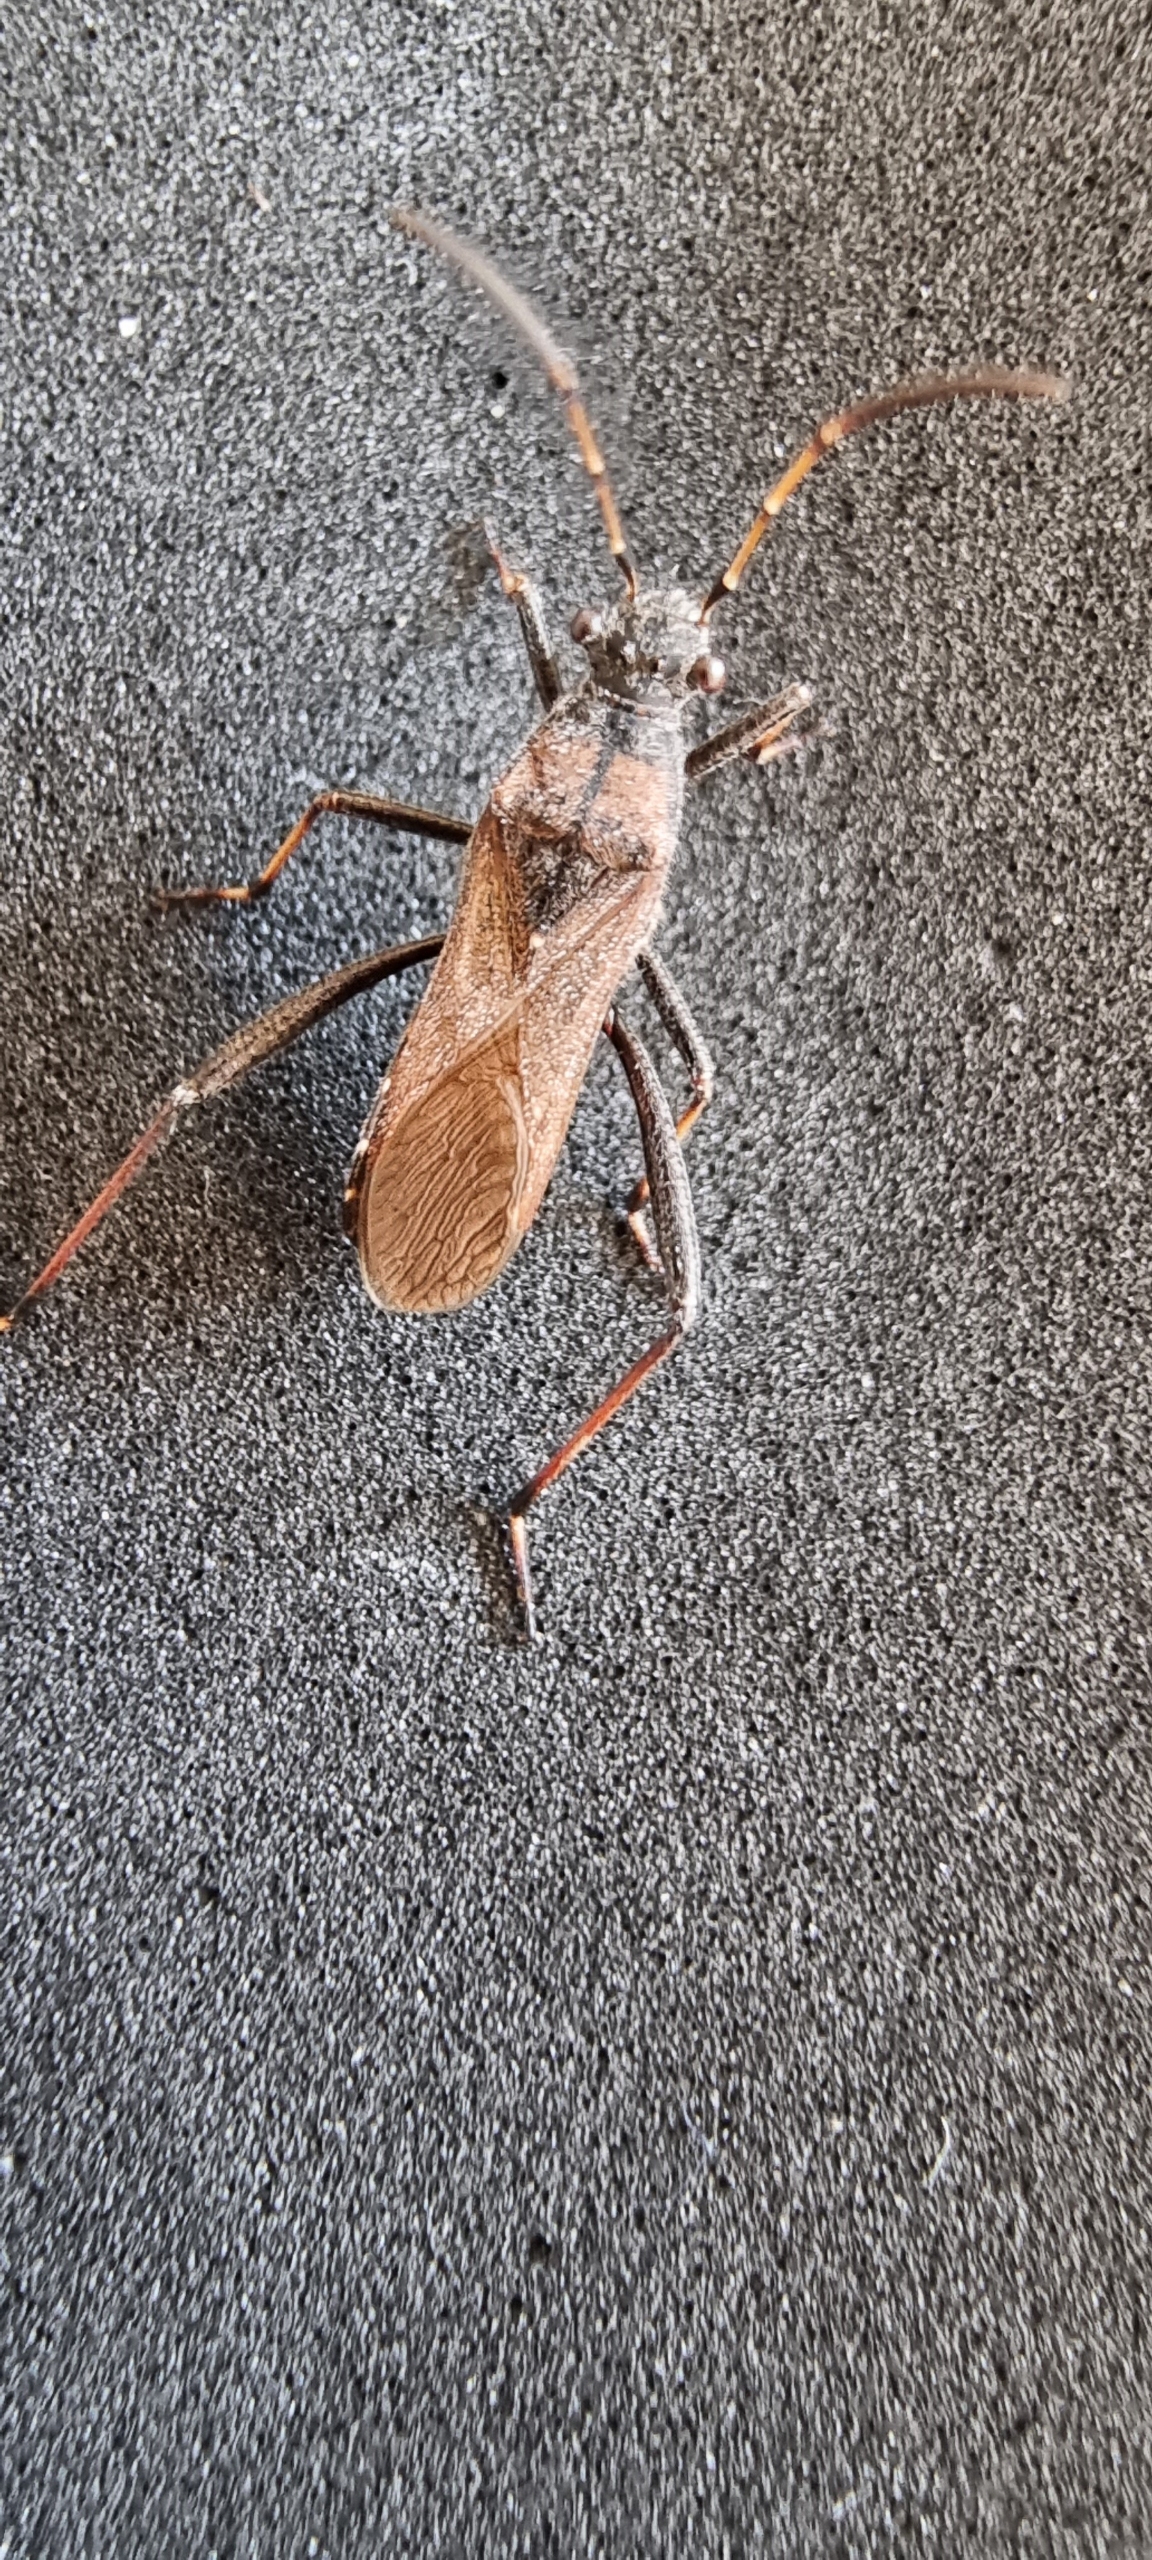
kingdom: Animalia
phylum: Arthropoda
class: Insecta
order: Hemiptera
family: Alydidae
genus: Alydus
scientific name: Alydus calcaratus
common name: Hvepsetæge
